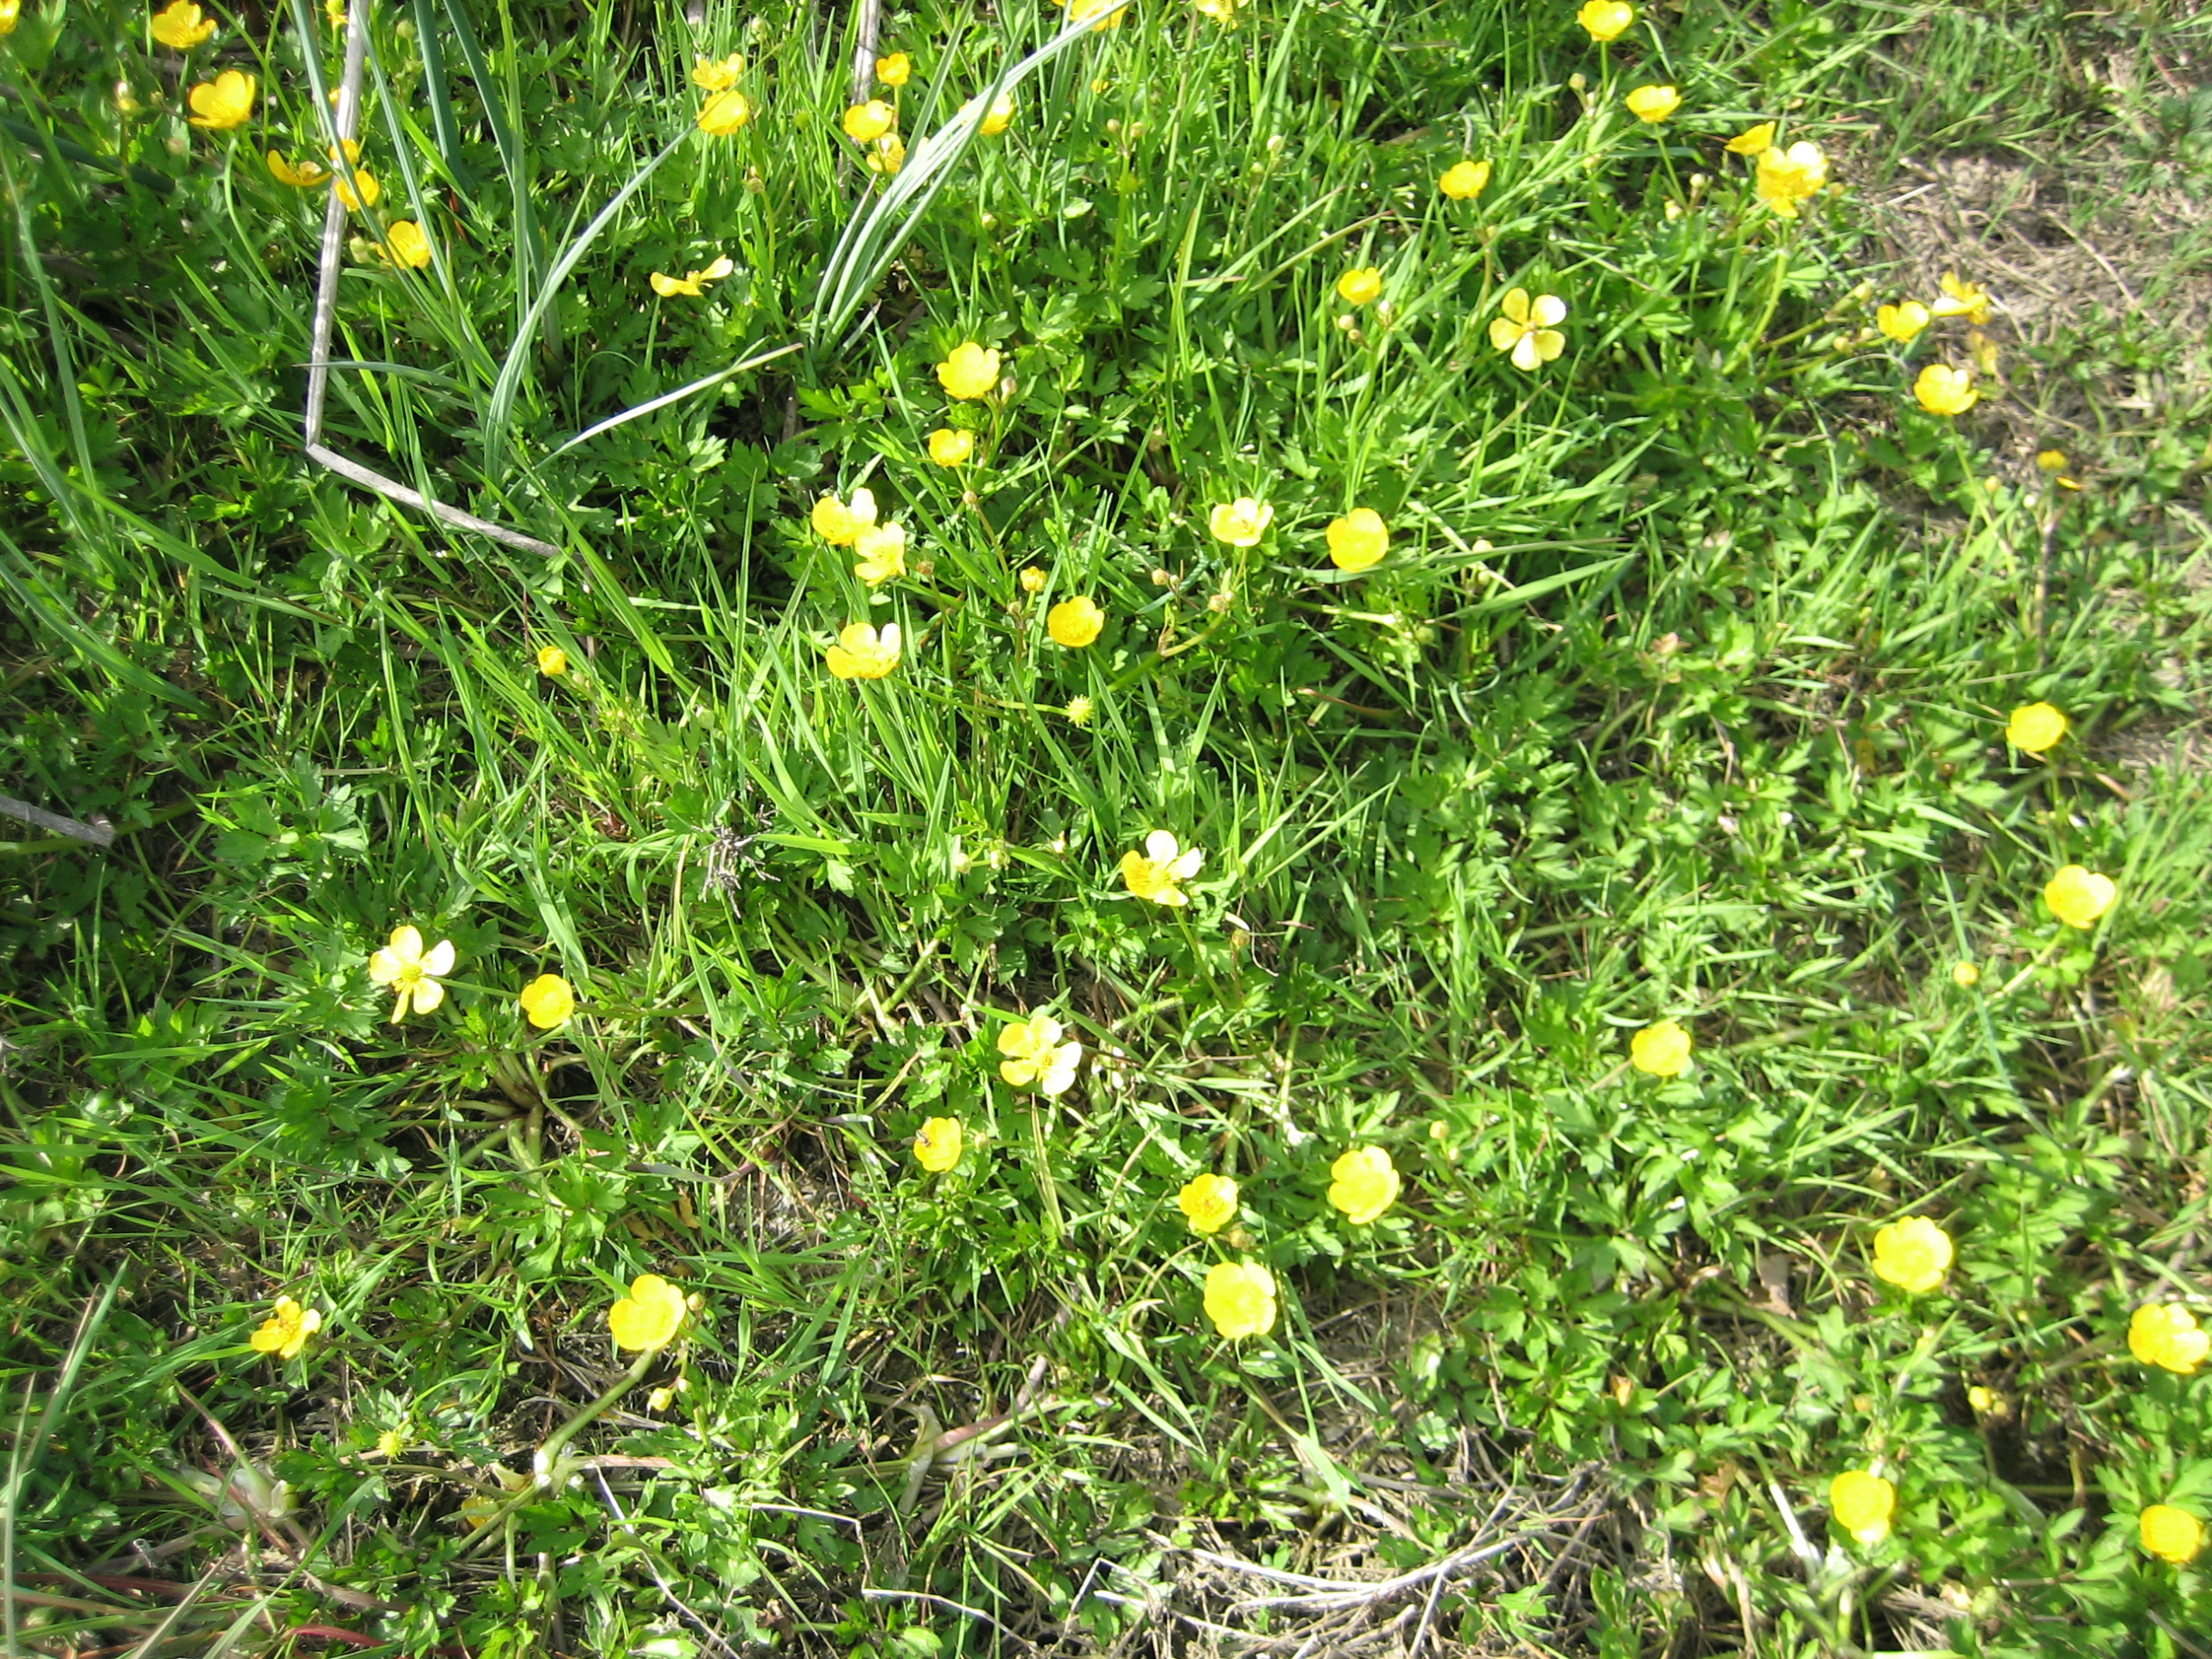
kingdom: Plantae
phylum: Tracheophyta
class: Magnoliopsida
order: Ranunculales
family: Ranunculaceae
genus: Ranunculus
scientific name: Ranunculus repens
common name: Lav ranunkel
